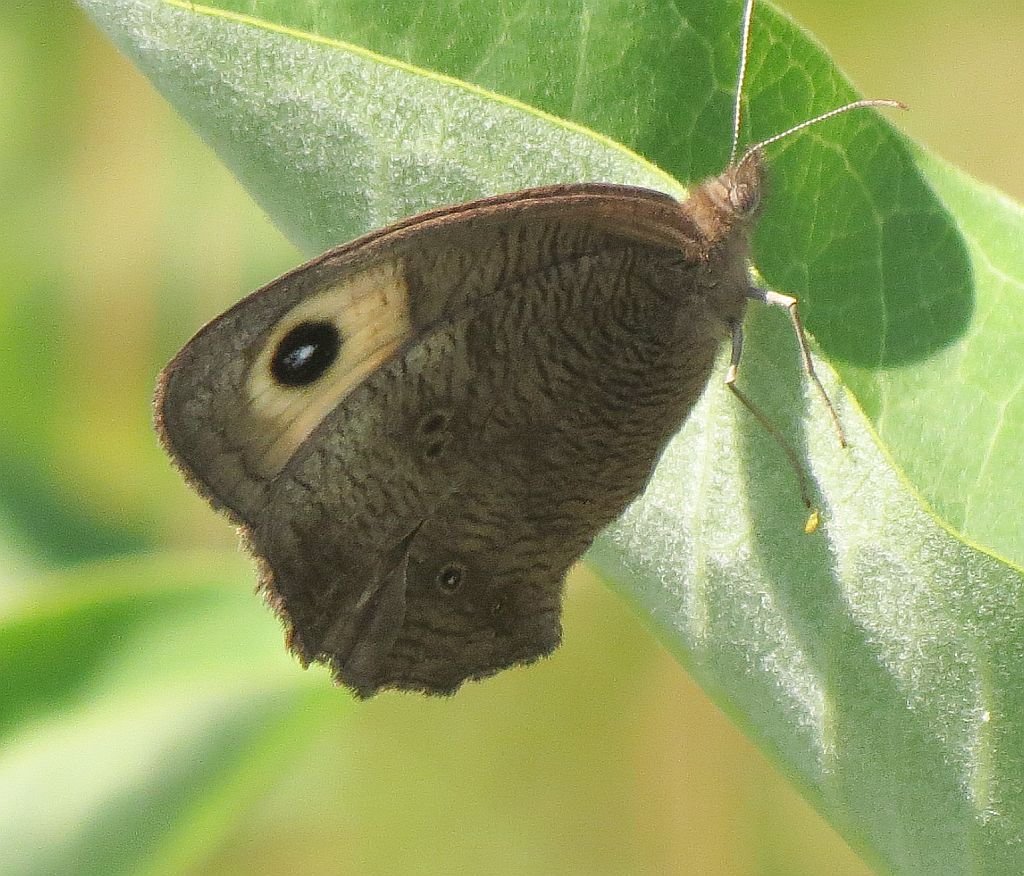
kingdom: Animalia
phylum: Arthropoda
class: Insecta
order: Lepidoptera
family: Nymphalidae
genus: Cercyonis
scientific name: Cercyonis pegala
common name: Common Wood-Nymph
